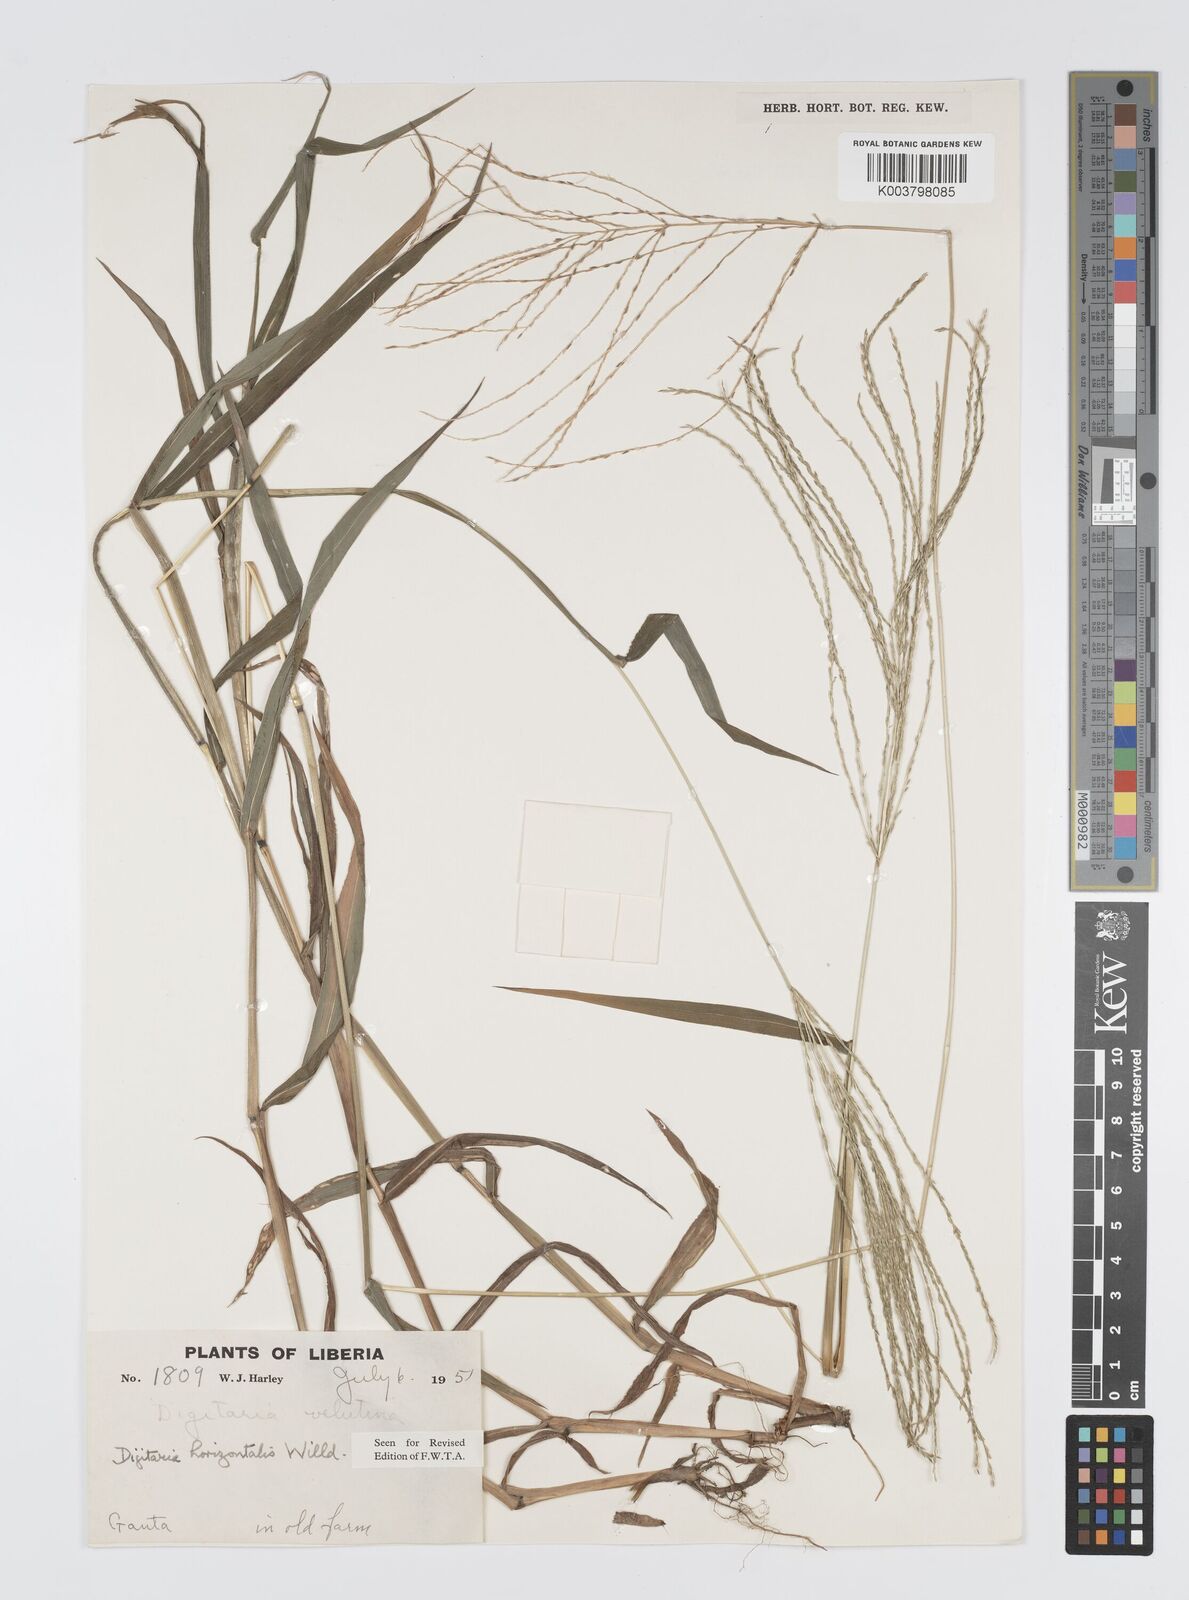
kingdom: Plantae
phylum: Tracheophyta
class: Liliopsida
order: Poales
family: Poaceae
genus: Digitaria
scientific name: Digitaria horizontalis
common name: Jamaican crabgrass
